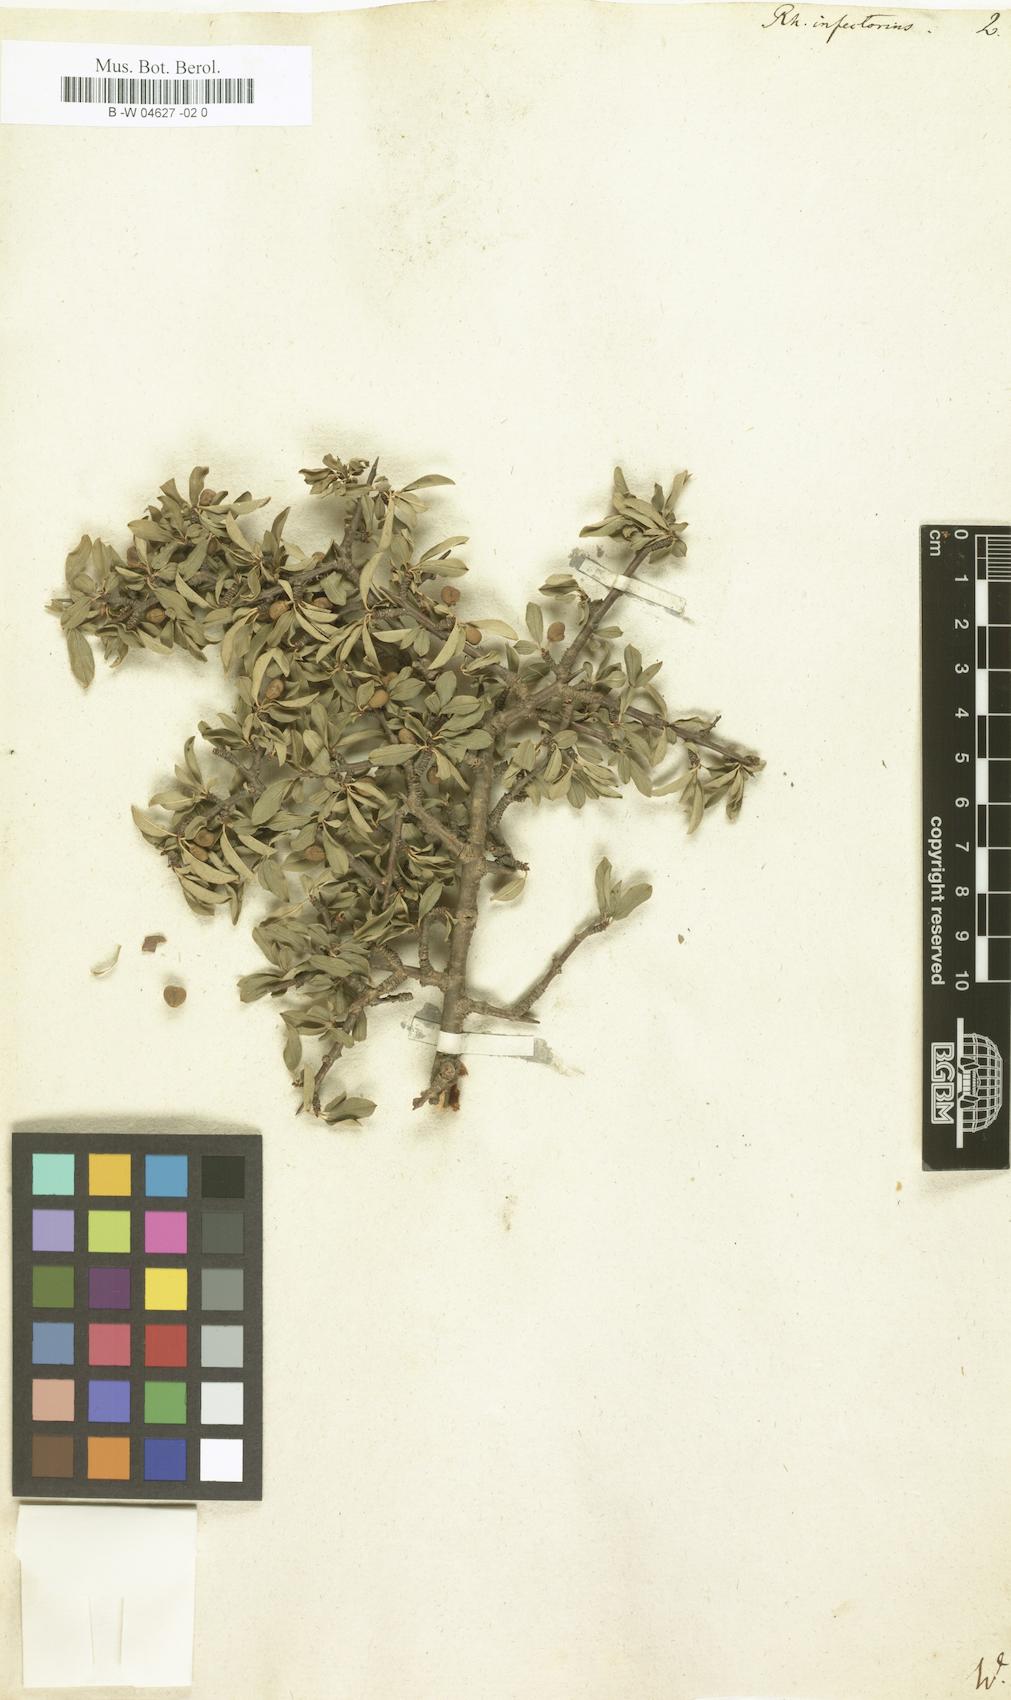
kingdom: Plantae
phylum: Tracheophyta
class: Magnoliopsida
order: Rosales
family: Rhamnaceae
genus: Rhamnus
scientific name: Rhamnus infectoria
